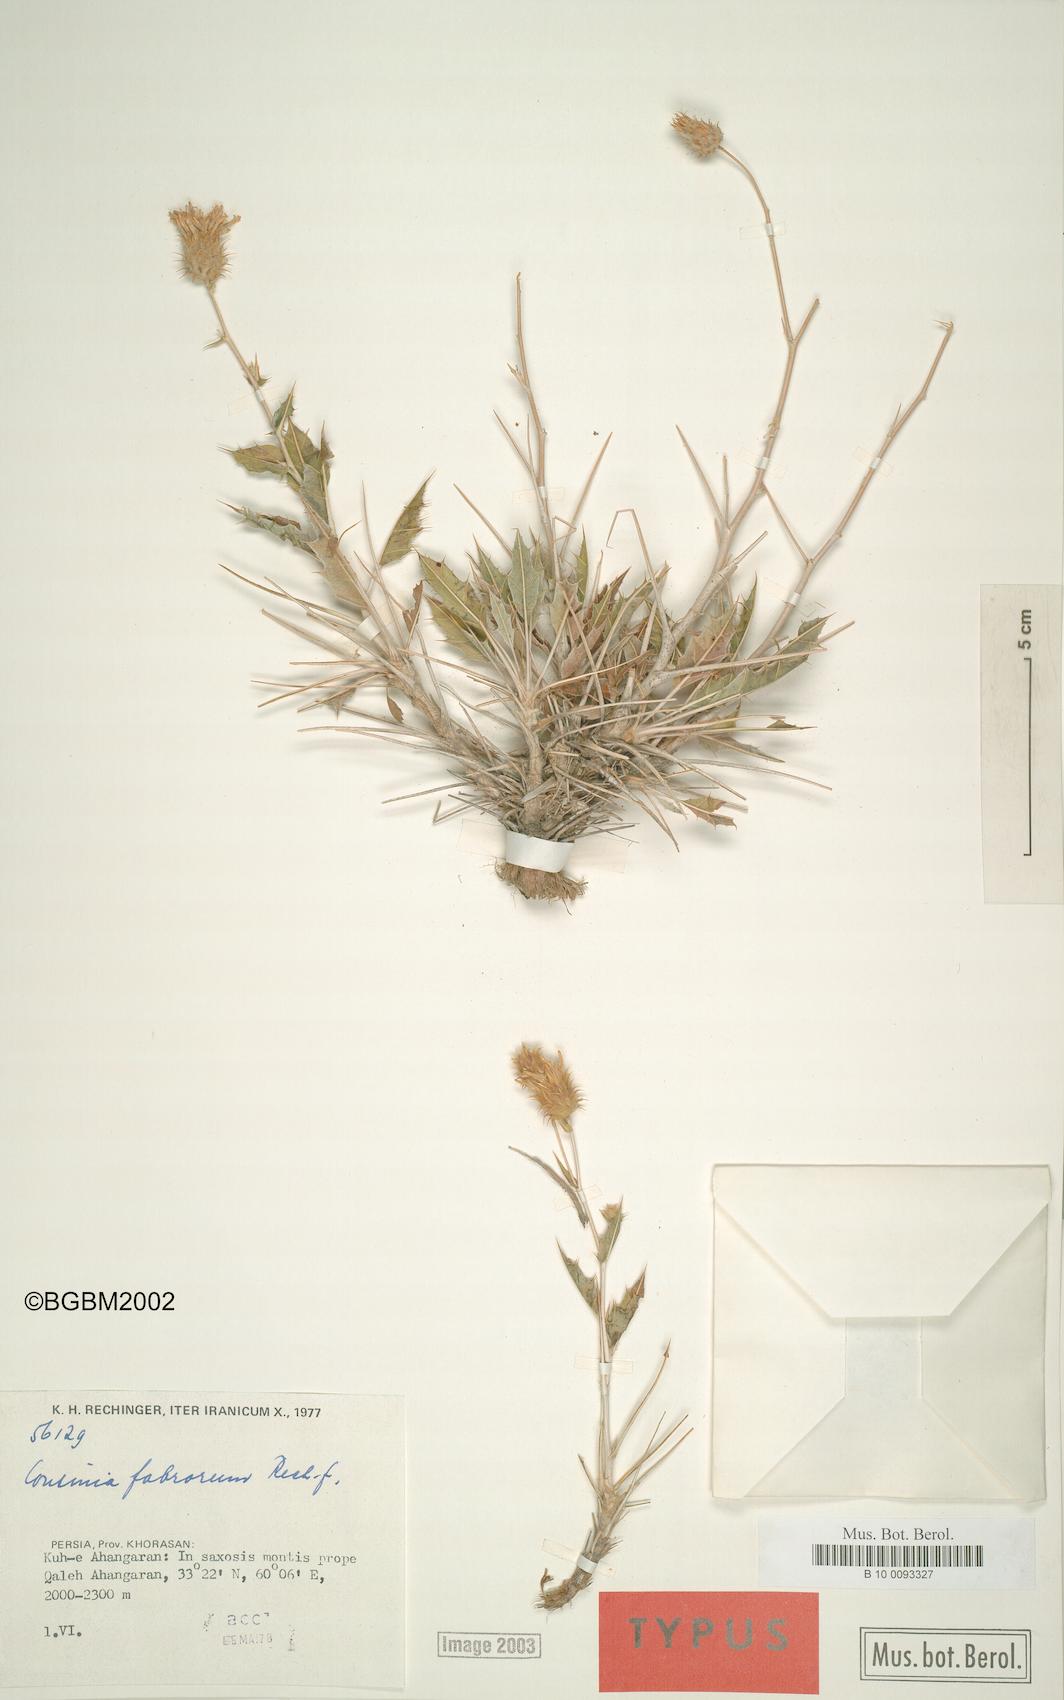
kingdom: Plantae
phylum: Tracheophyta
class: Magnoliopsida
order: Asterales
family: Asteraceae
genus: Cousinia
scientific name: Cousinia fabrorum
